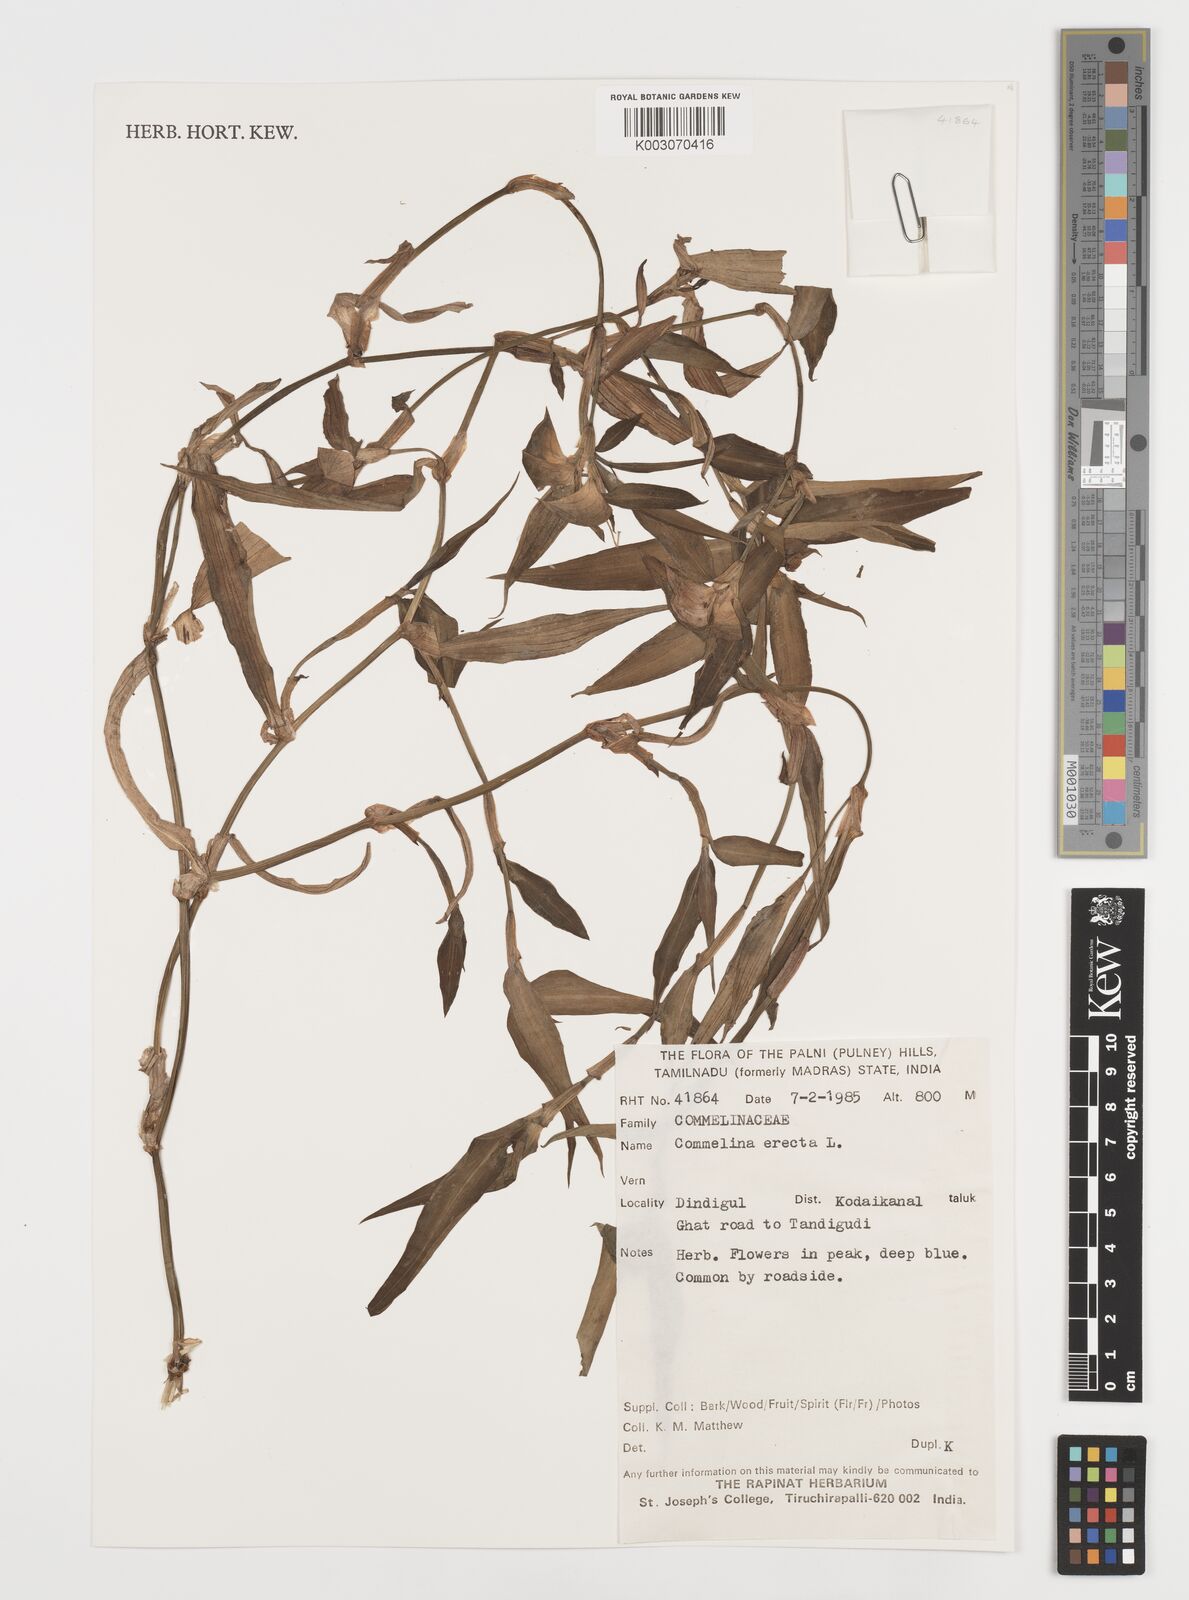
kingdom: Plantae
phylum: Tracheophyta
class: Liliopsida
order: Commelinales
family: Commelinaceae
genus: Commelina
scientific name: Commelina erecta
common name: Blousel blommetjie
